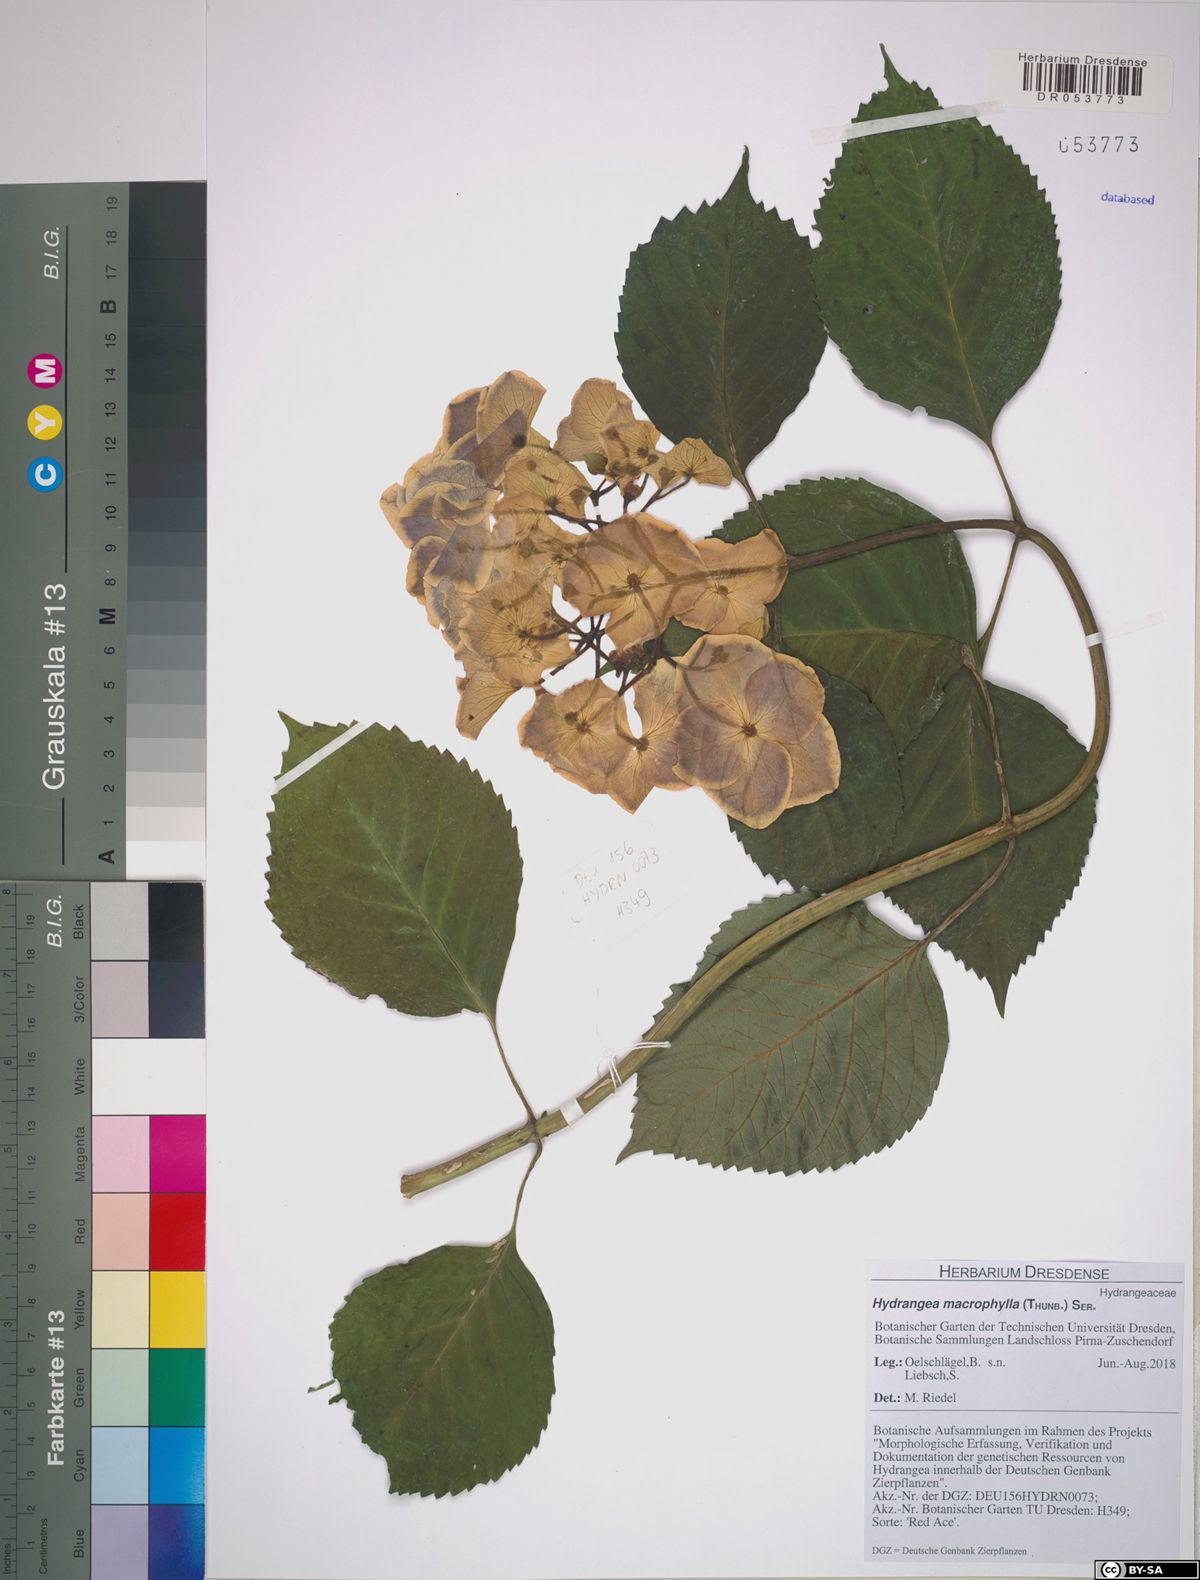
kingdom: Plantae
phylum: Tracheophyta
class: Magnoliopsida
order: Cornales
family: Hydrangeaceae
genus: Hydrangea
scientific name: Hydrangea macrophylla
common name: Hydrangea
